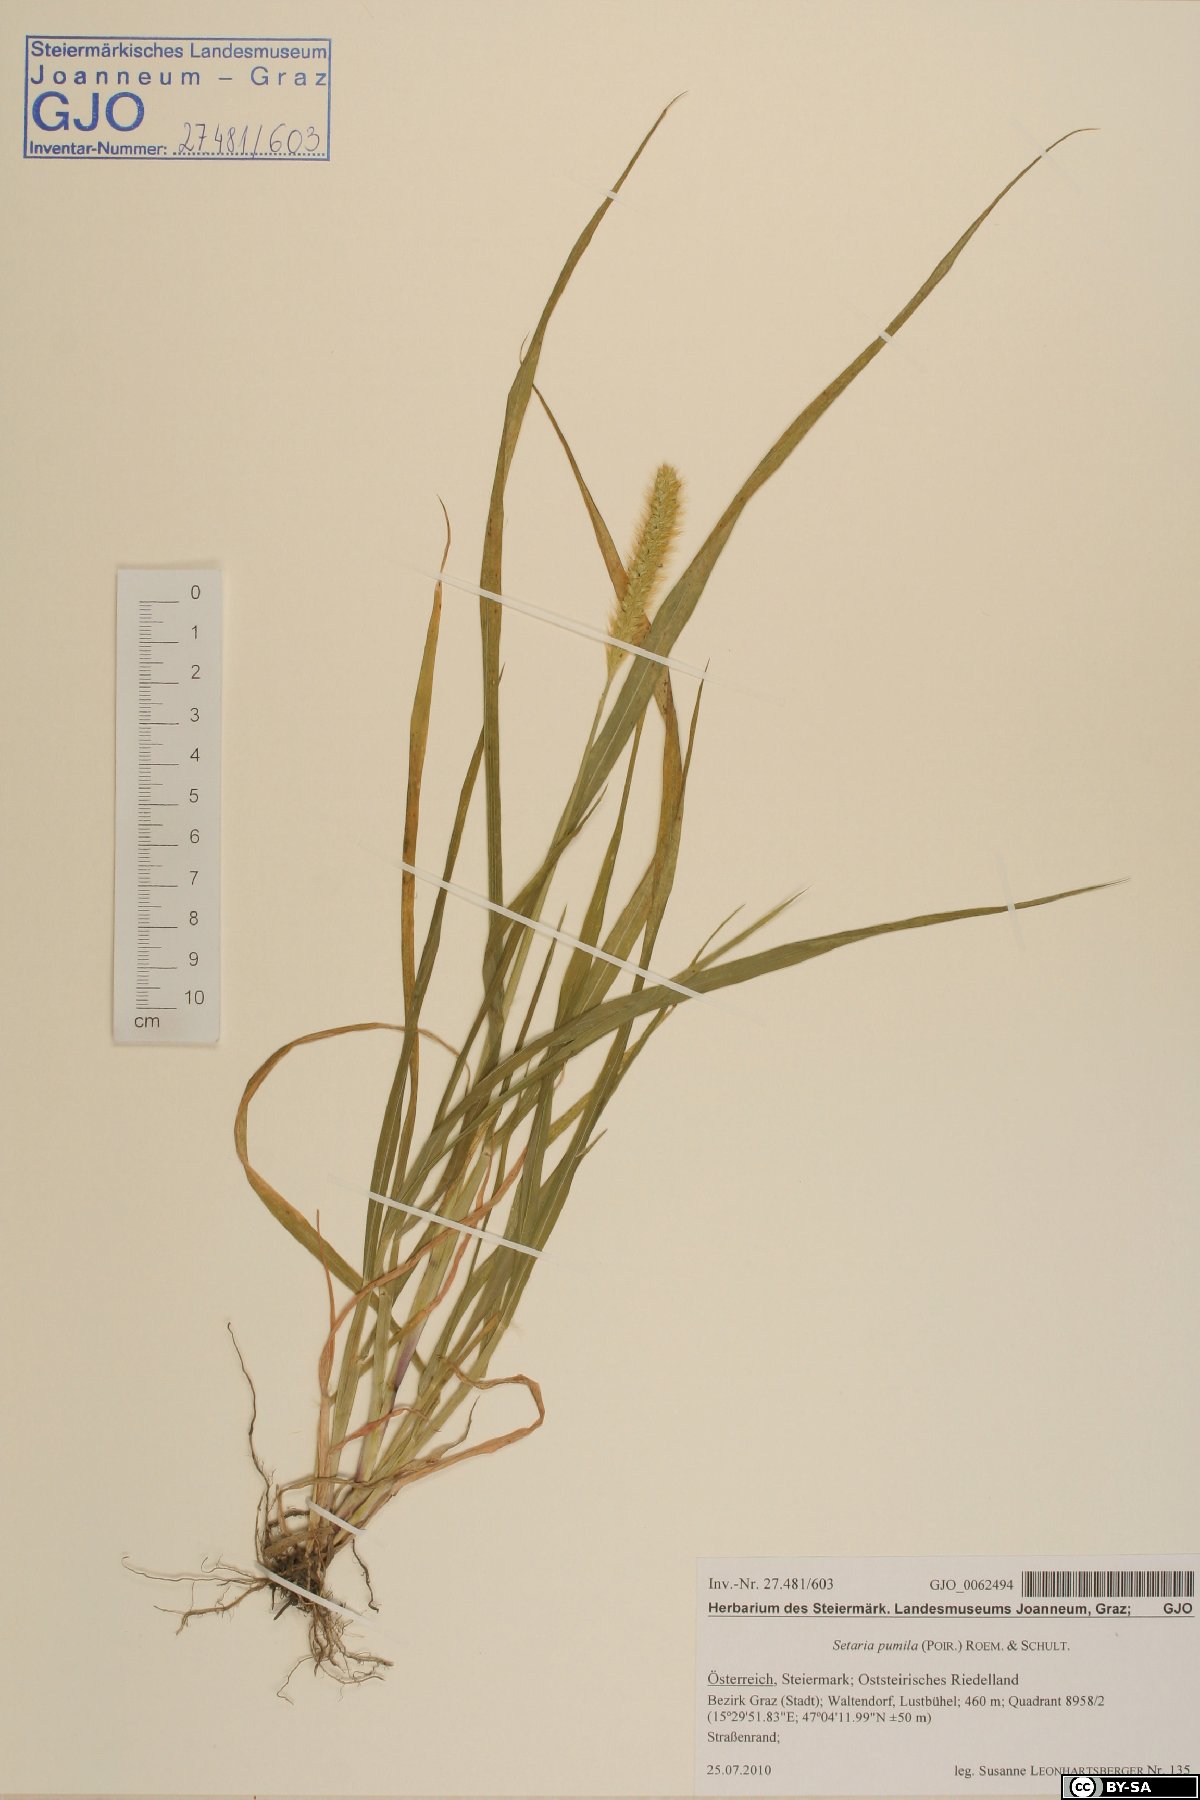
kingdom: Plantae
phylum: Tracheophyta
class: Liliopsida
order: Poales
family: Poaceae
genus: Setaria
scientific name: Setaria pumila
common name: Yellow bristle-grass
